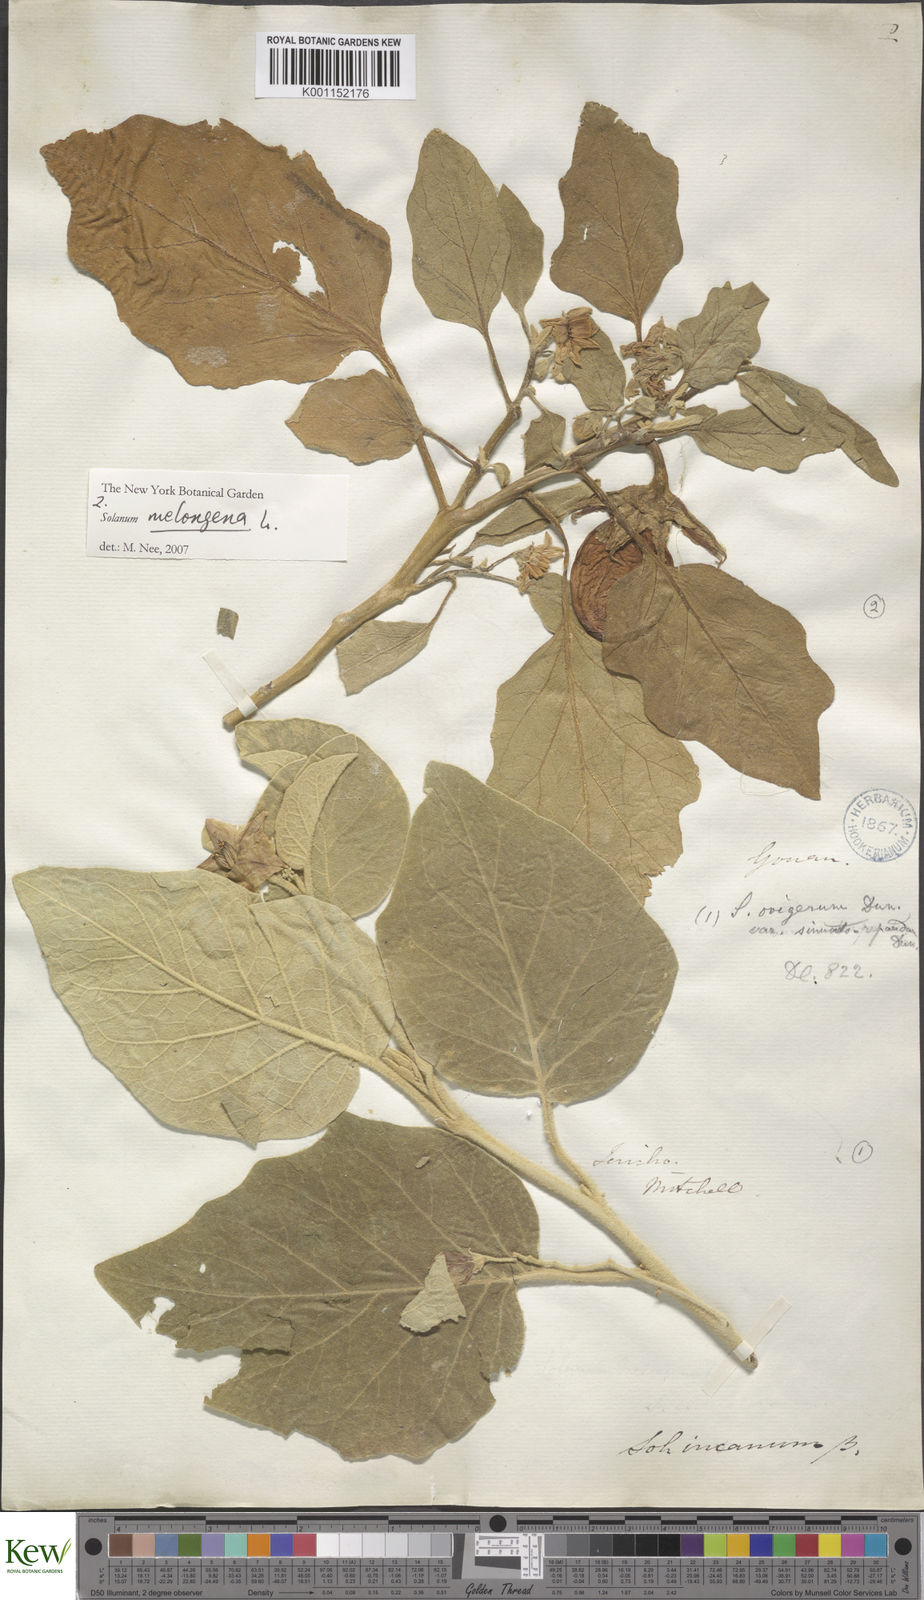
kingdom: Plantae
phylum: Tracheophyta
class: Magnoliopsida
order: Solanales
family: Solanaceae
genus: Solanum
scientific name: Solanum melongena
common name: Eggplant
